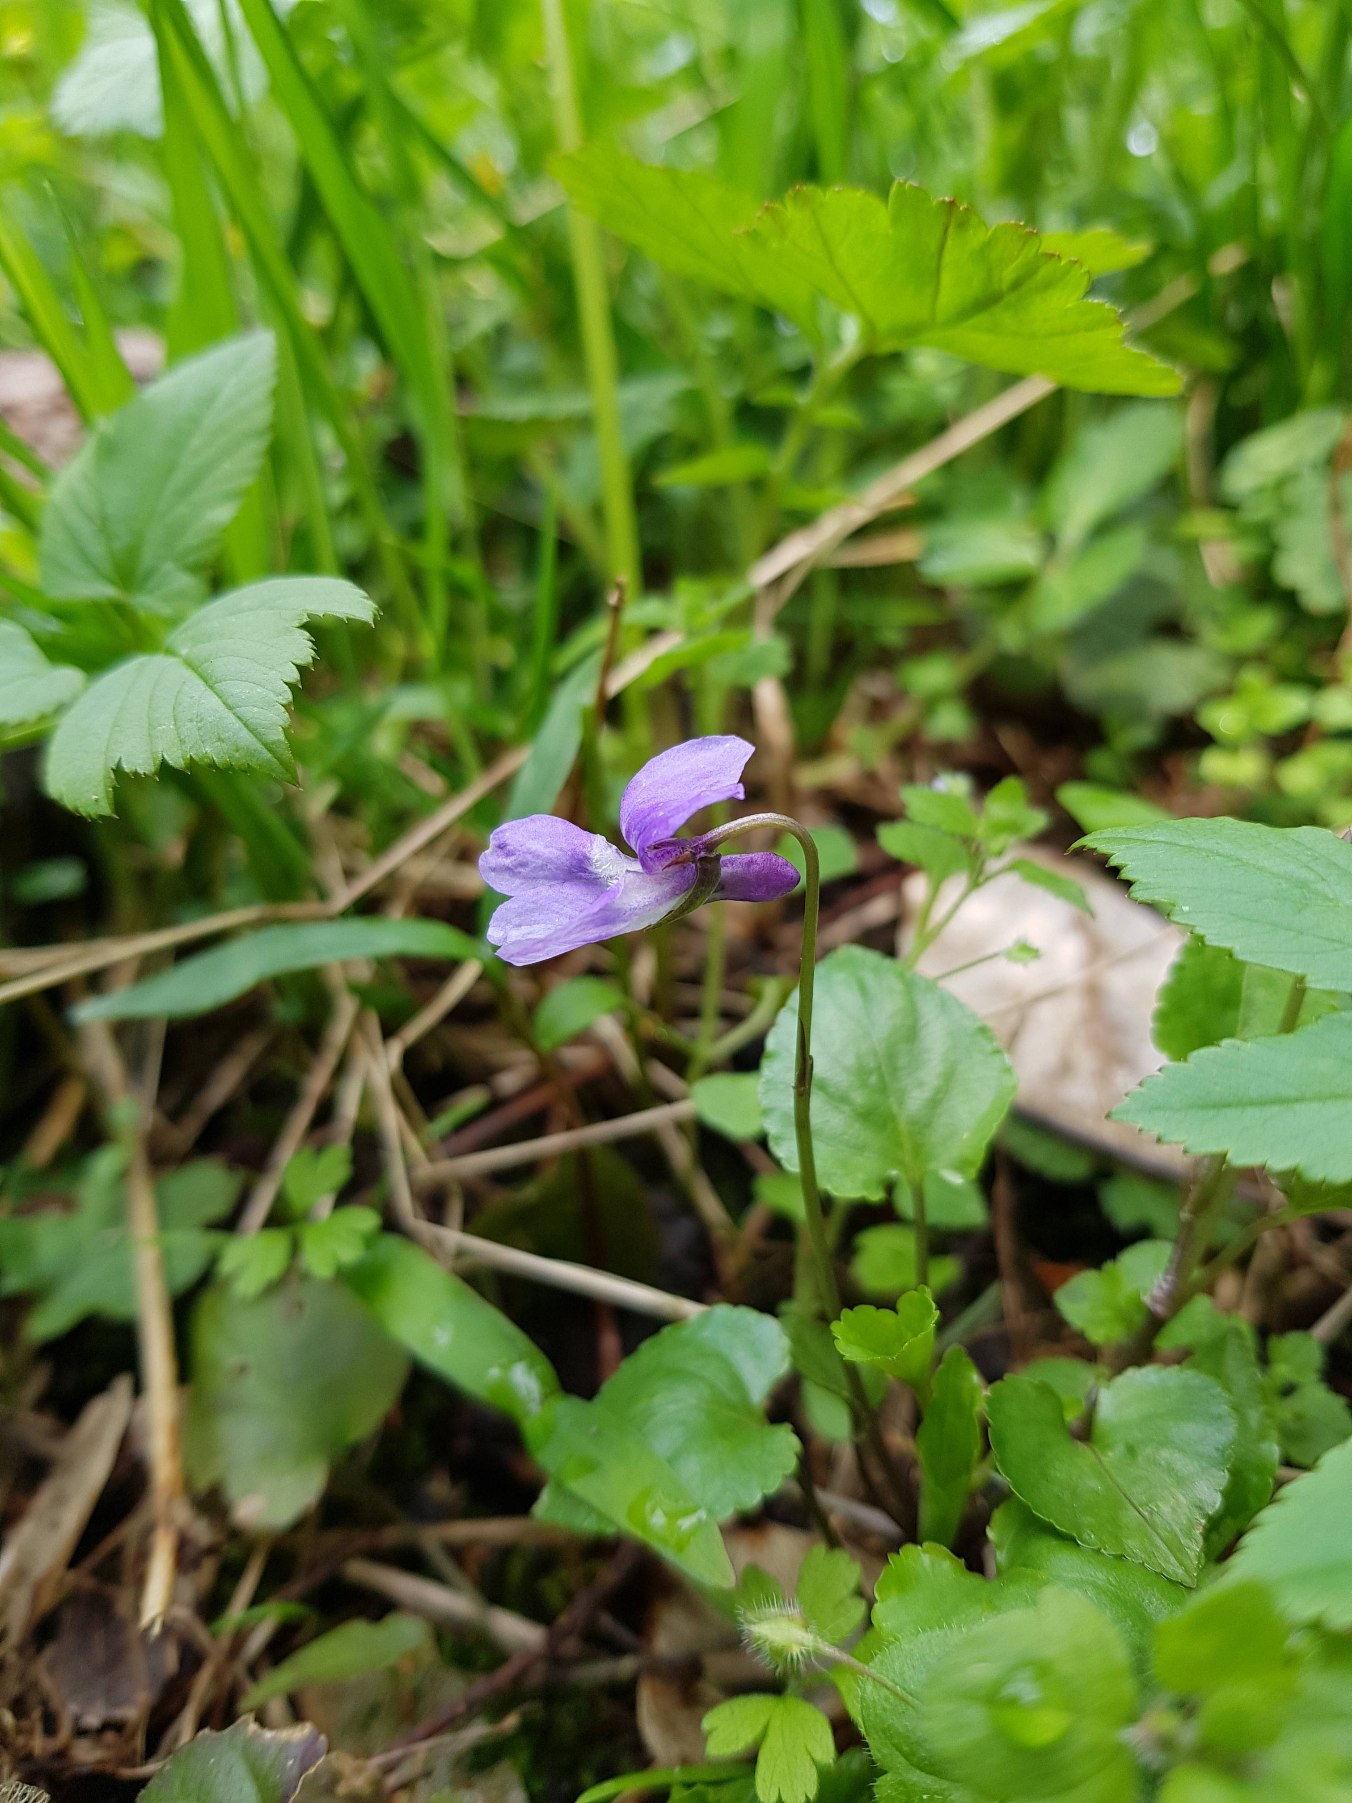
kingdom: Plantae
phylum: Tracheophyta
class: Magnoliopsida
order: Malpighiales
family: Violaceae
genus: Viola
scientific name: Viola reichenbachiana
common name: Skov-viol
